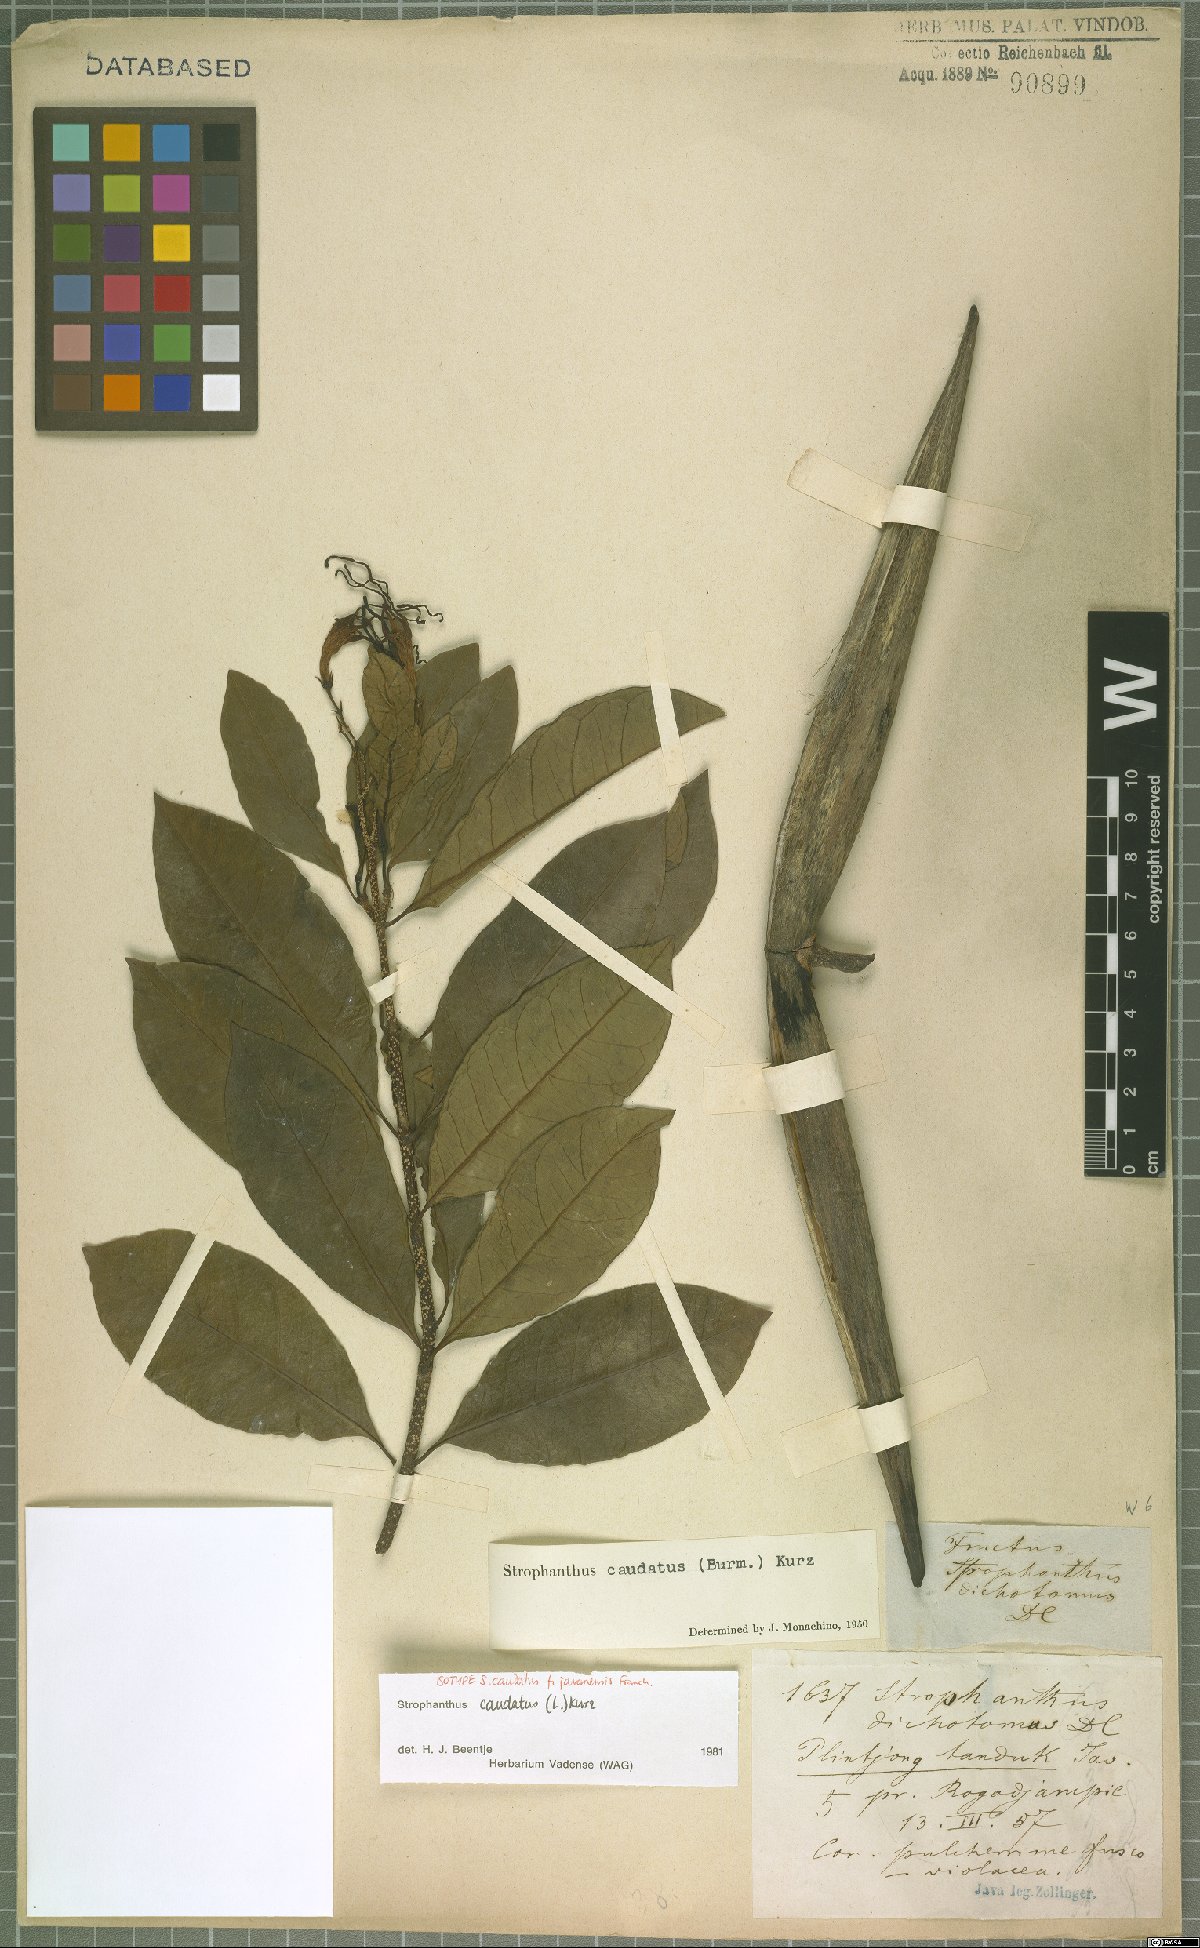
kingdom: Plantae
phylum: Tracheophyta
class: Magnoliopsida
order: Gentianales
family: Apocynaceae
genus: Strophanthus
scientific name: Strophanthus caudatus
